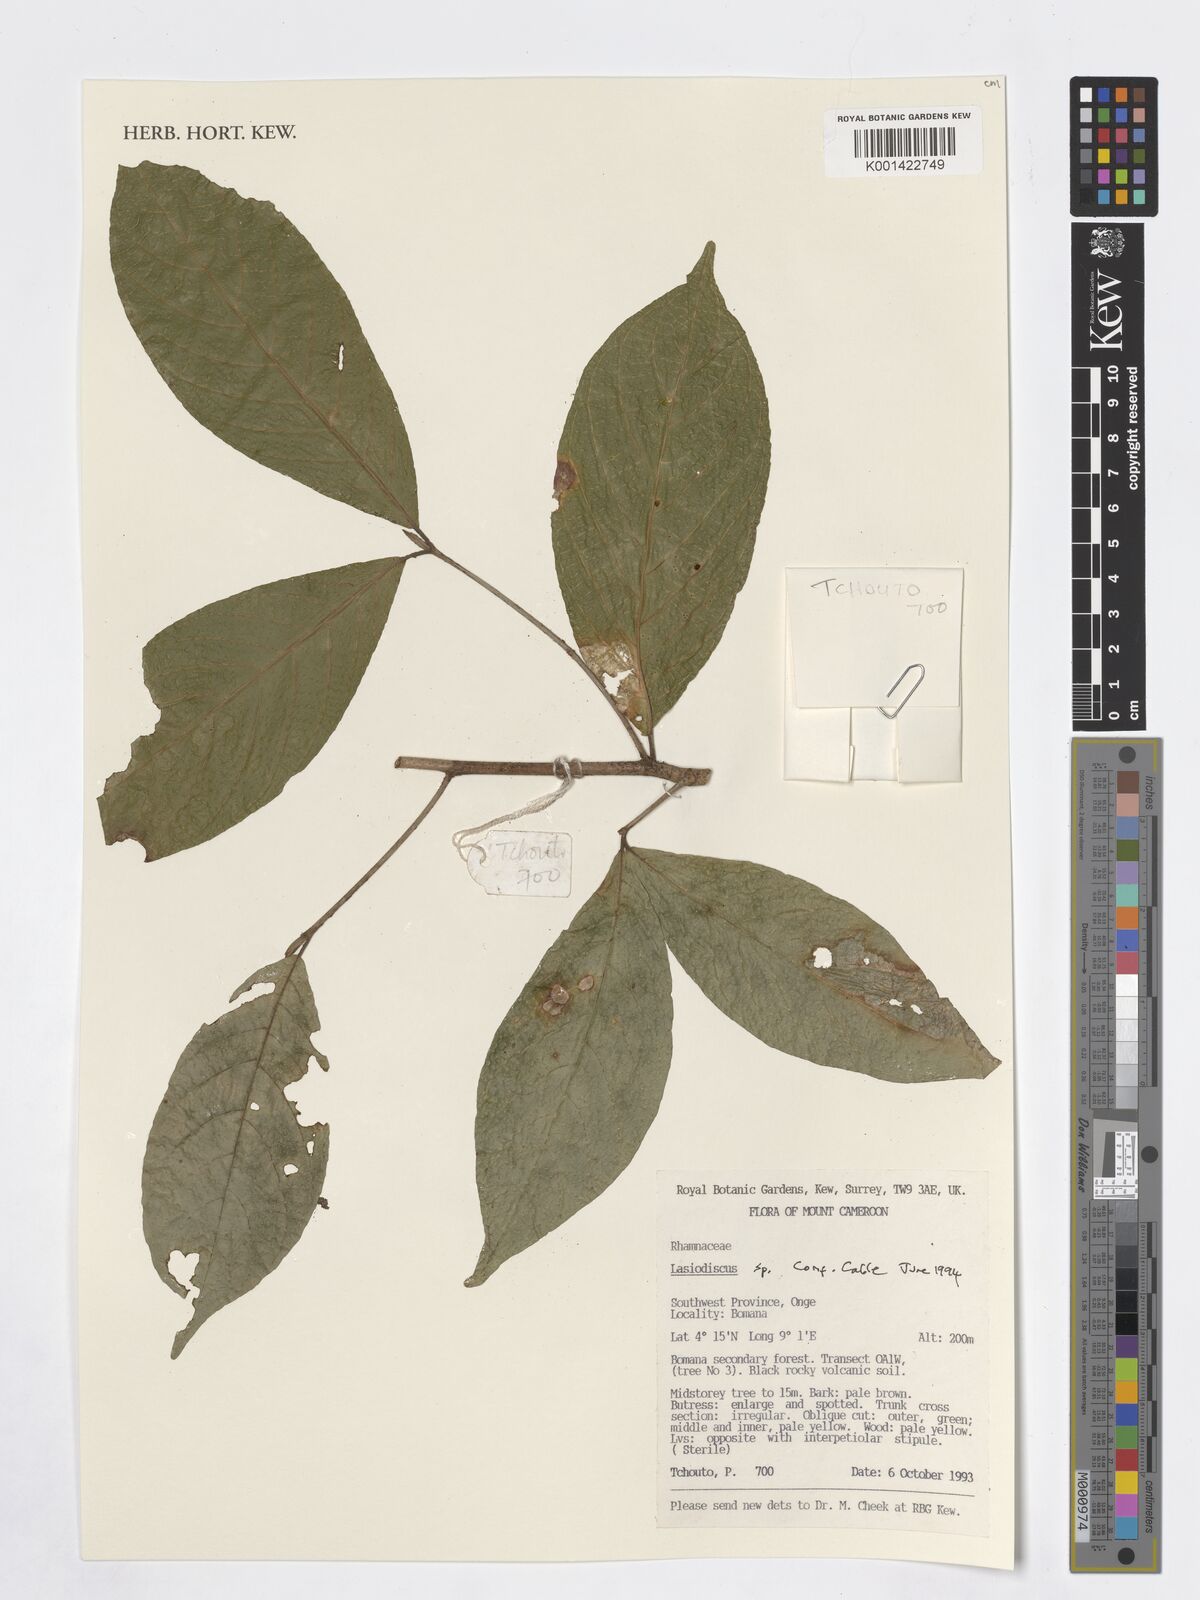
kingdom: Plantae
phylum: Tracheophyta
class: Magnoliopsida
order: Rosales
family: Rhamnaceae
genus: Lasiodiscus
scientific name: Lasiodiscus
